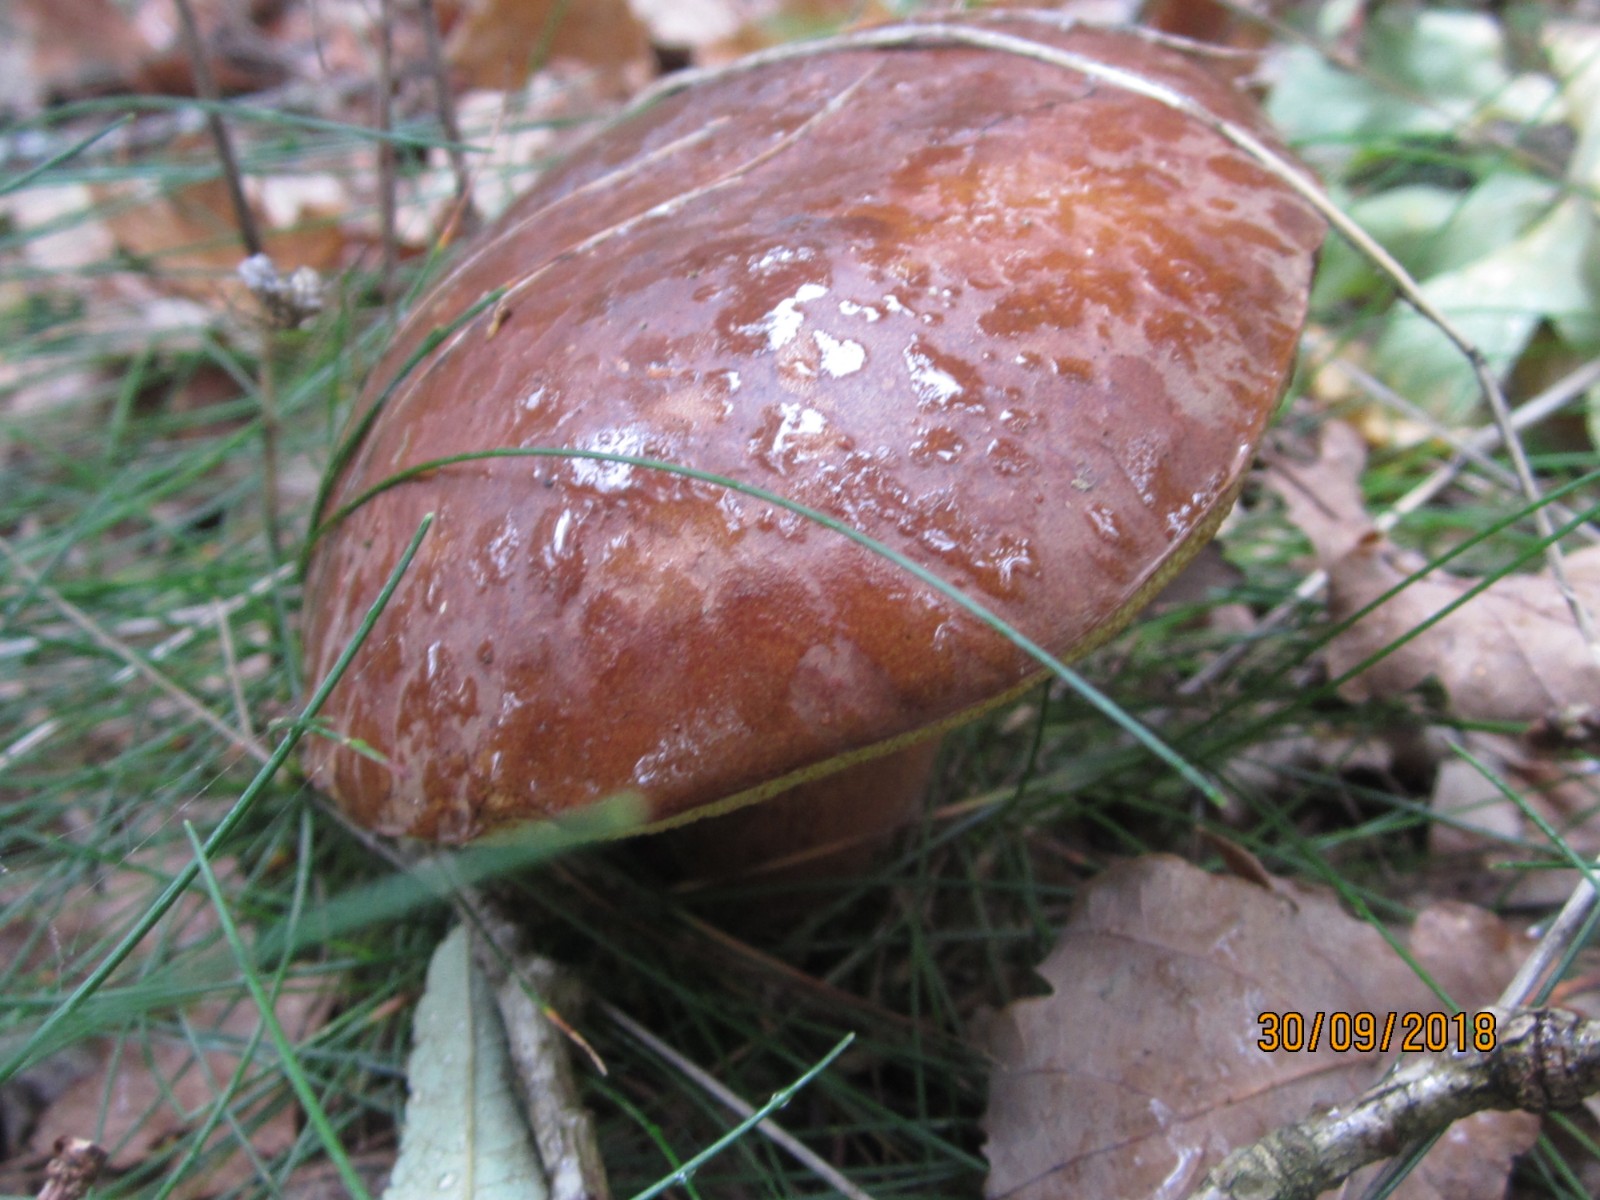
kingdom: Fungi
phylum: Basidiomycota
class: Agaricomycetes
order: Boletales
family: Boletaceae
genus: Imleria
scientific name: Imleria badia
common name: brunstokket rørhat
